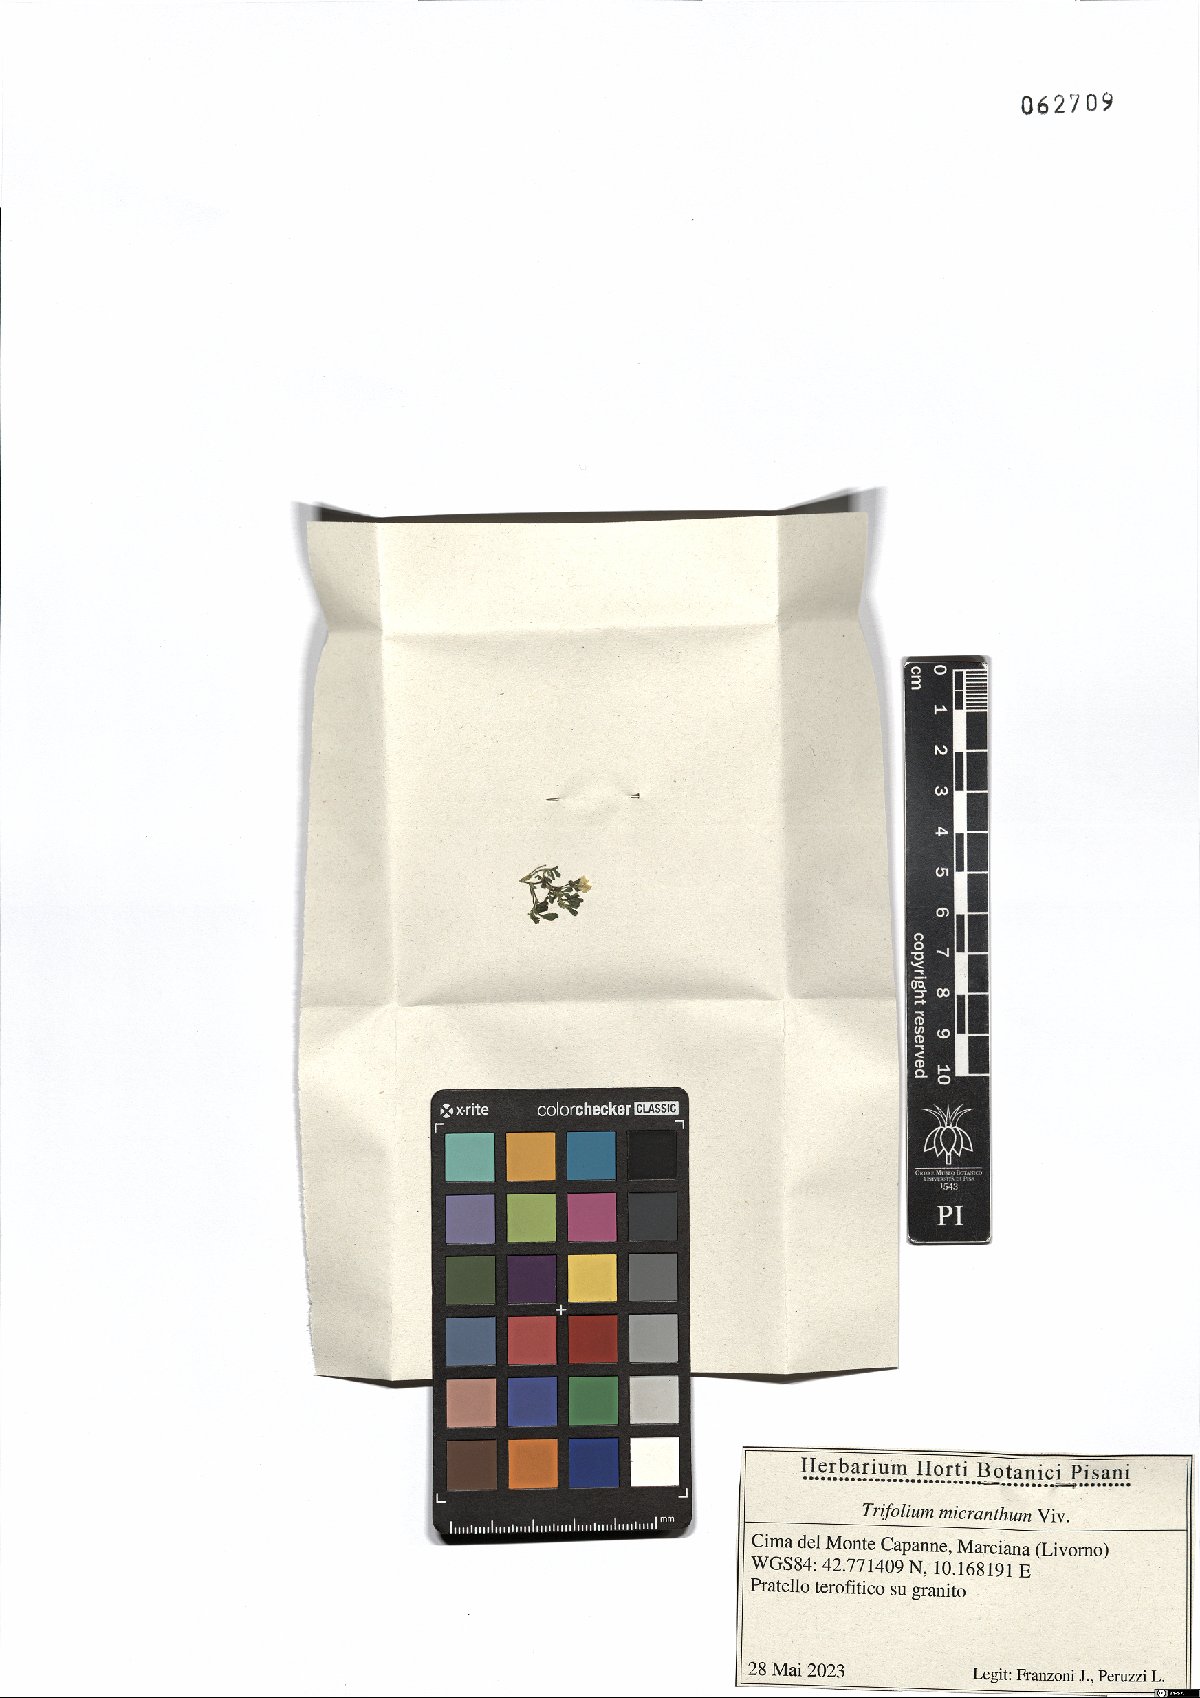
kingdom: Plantae
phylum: Tracheophyta
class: Magnoliopsida
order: Fabales
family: Fabaceae
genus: Trifolium
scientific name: Trifolium micranthum
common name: Slender trefoil
